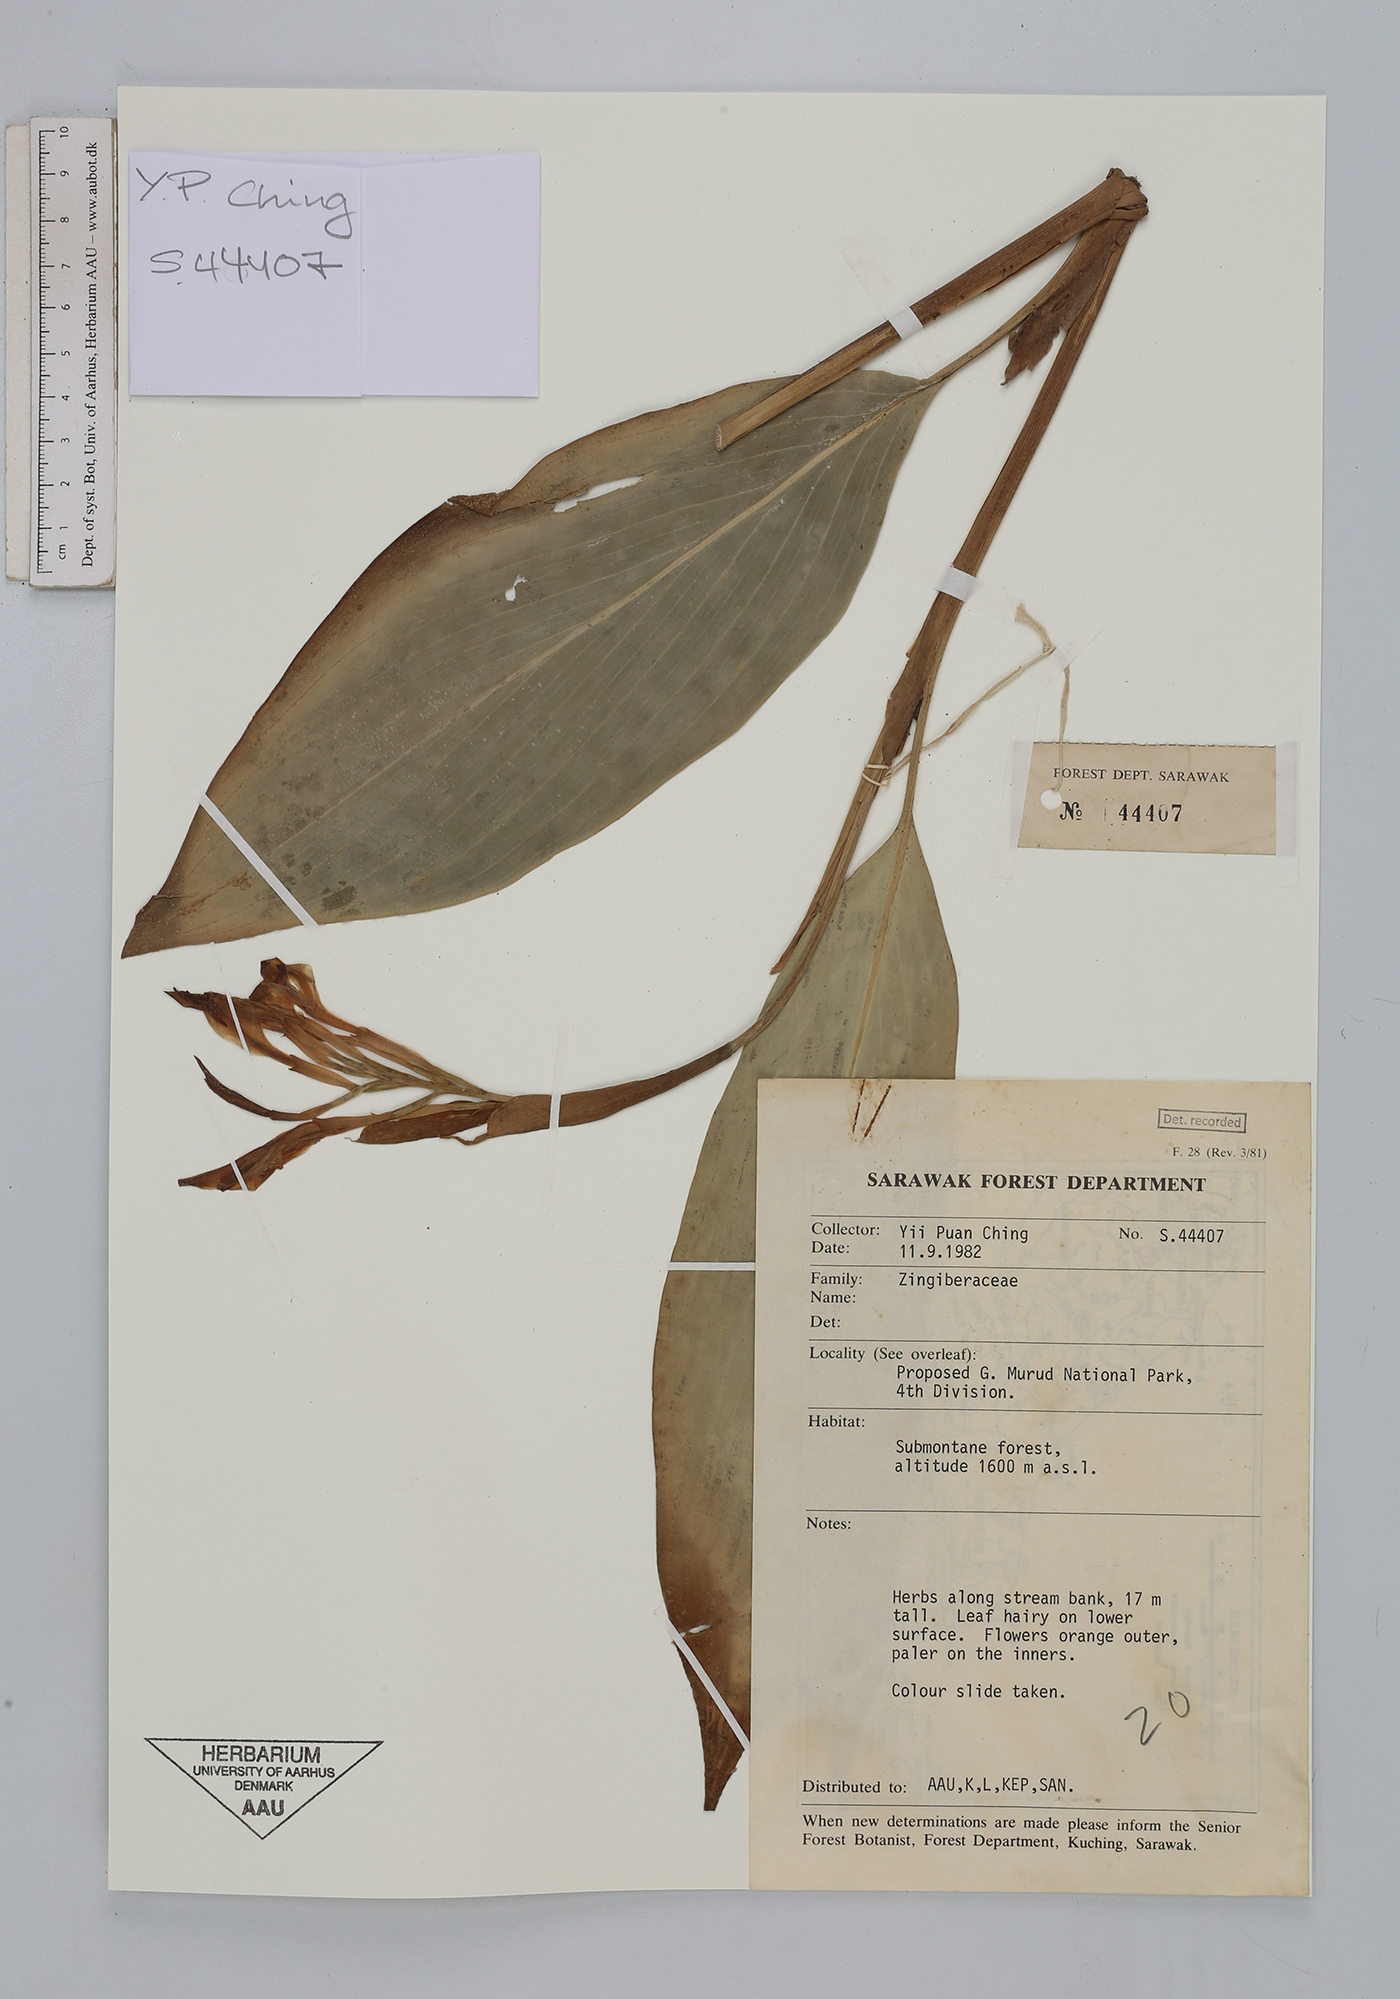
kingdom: Plantae
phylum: Tracheophyta
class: Liliopsida
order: Zingiberales
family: Zingiberaceae
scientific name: Zingiberaceae
